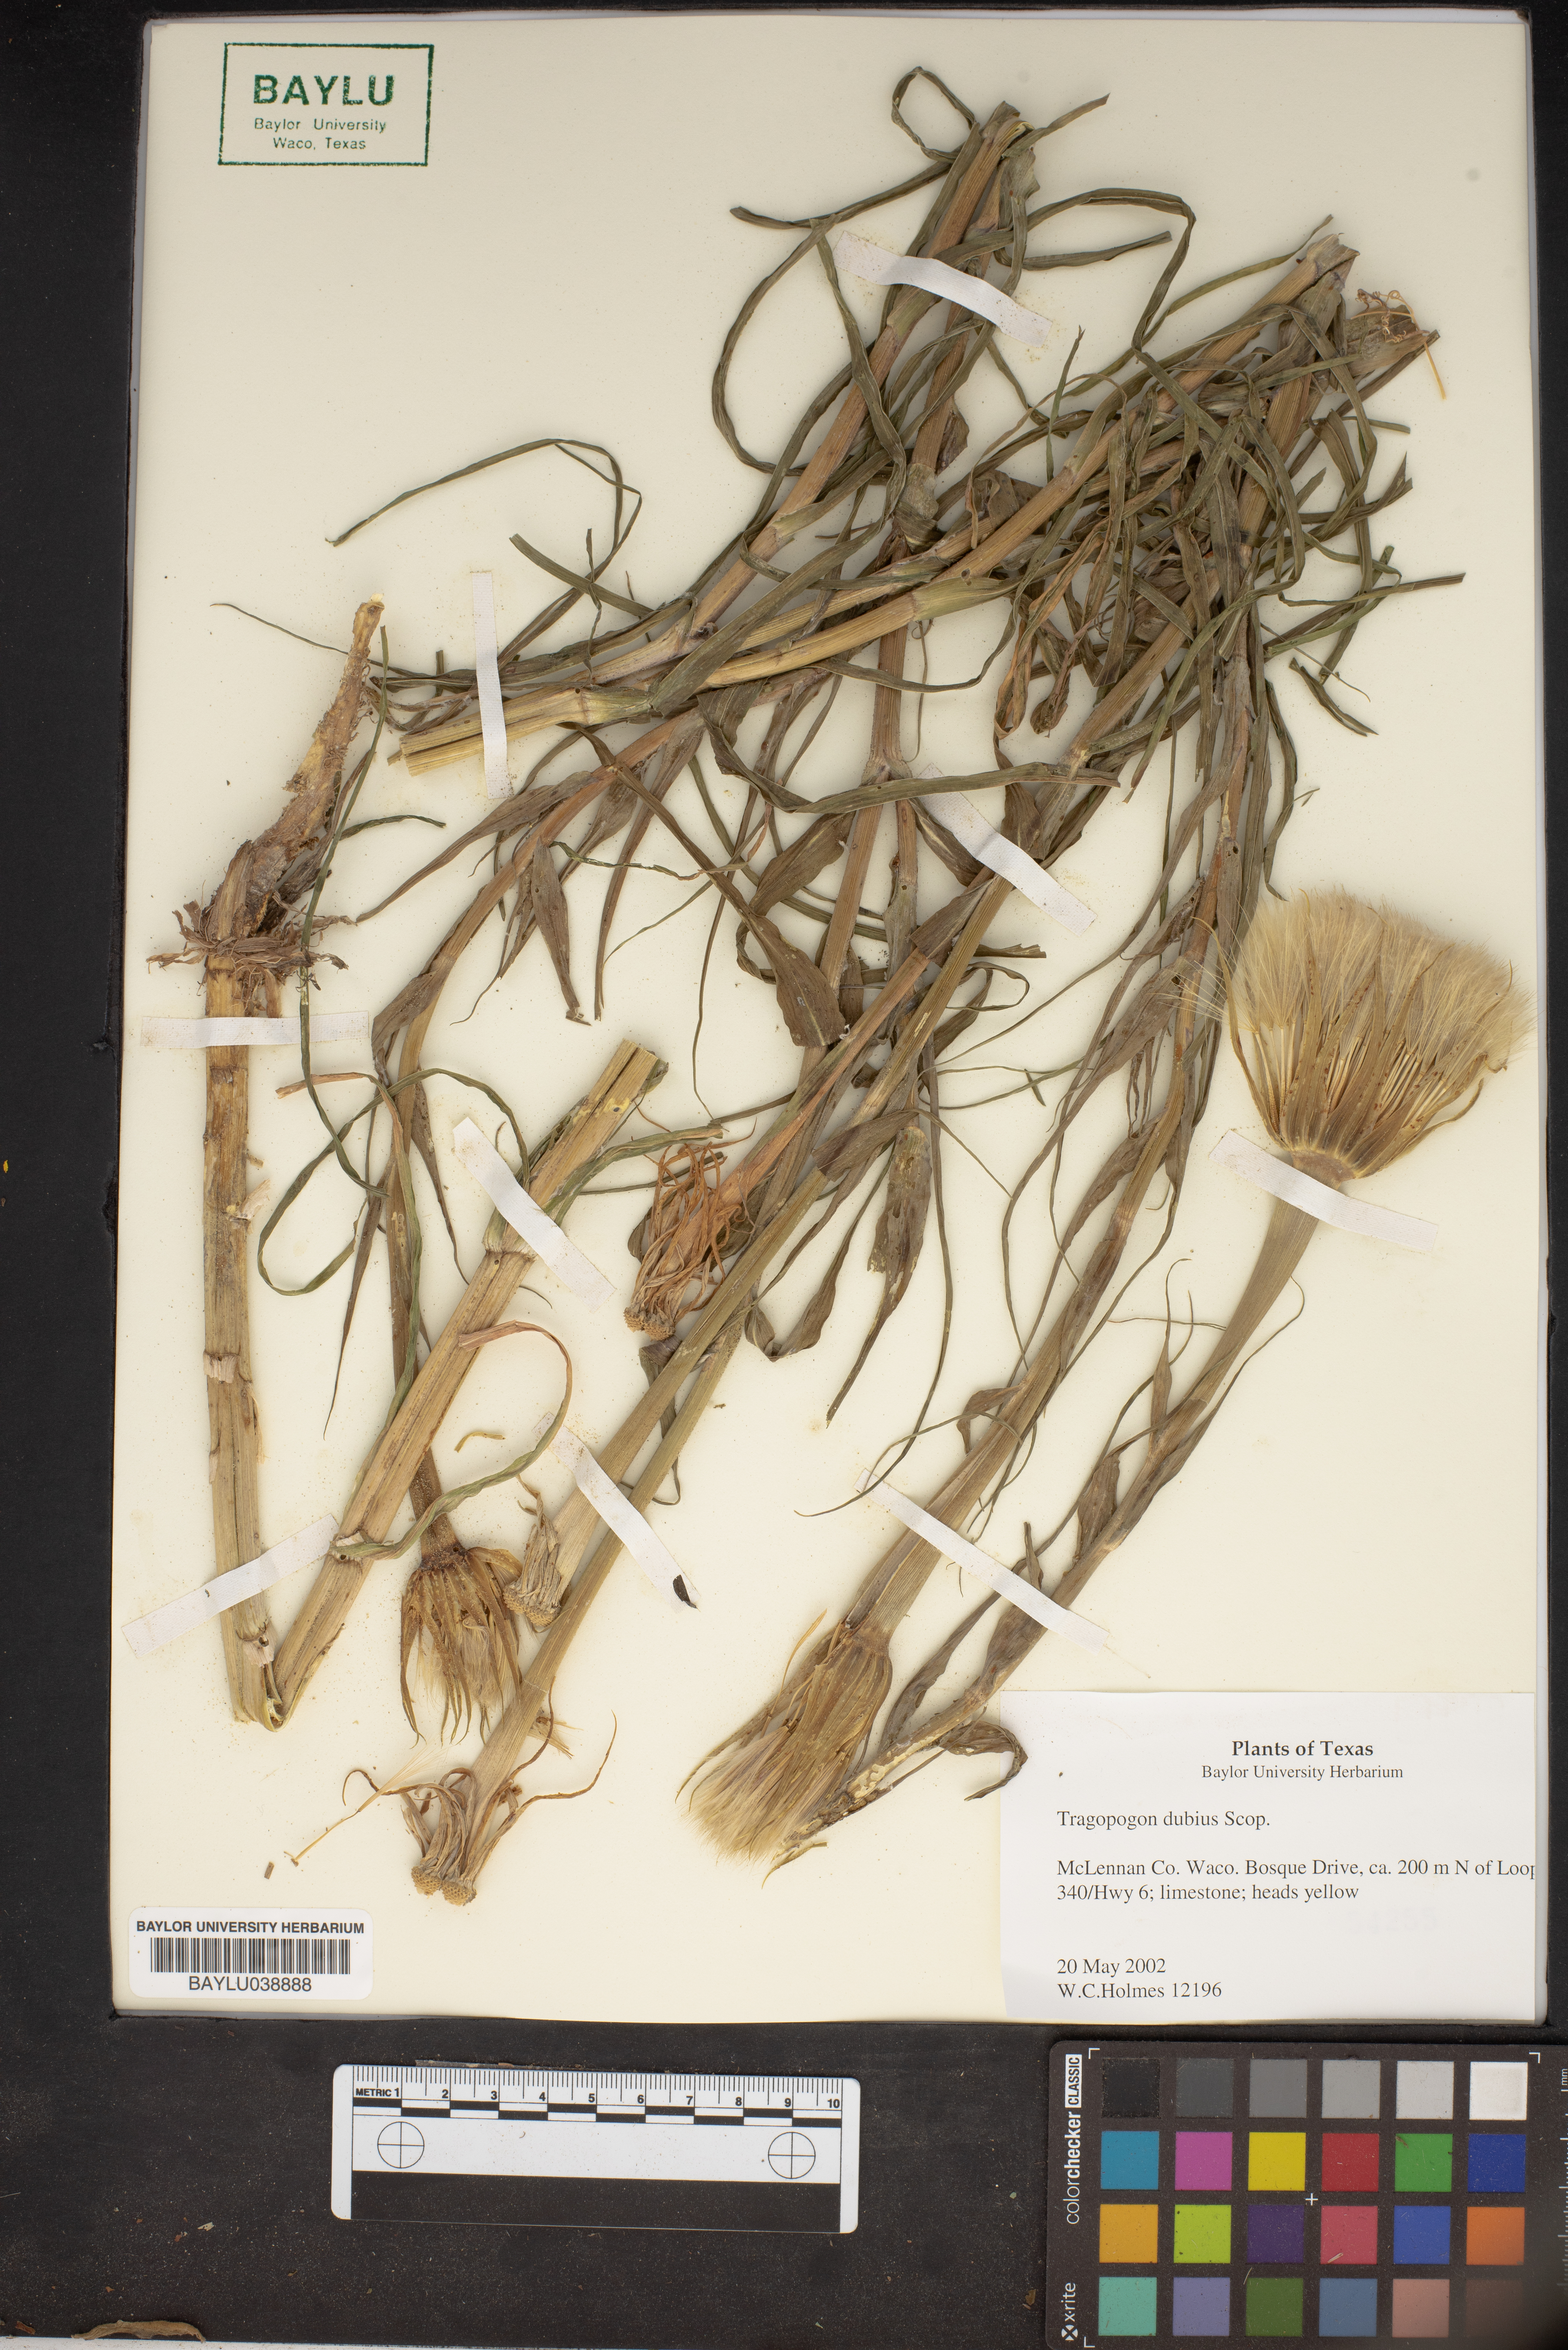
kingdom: Plantae
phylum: Tracheophyta
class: Magnoliopsida
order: Asterales
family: Asteraceae
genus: Tragopogon
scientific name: Tragopogon dubius
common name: Yellow salsify
